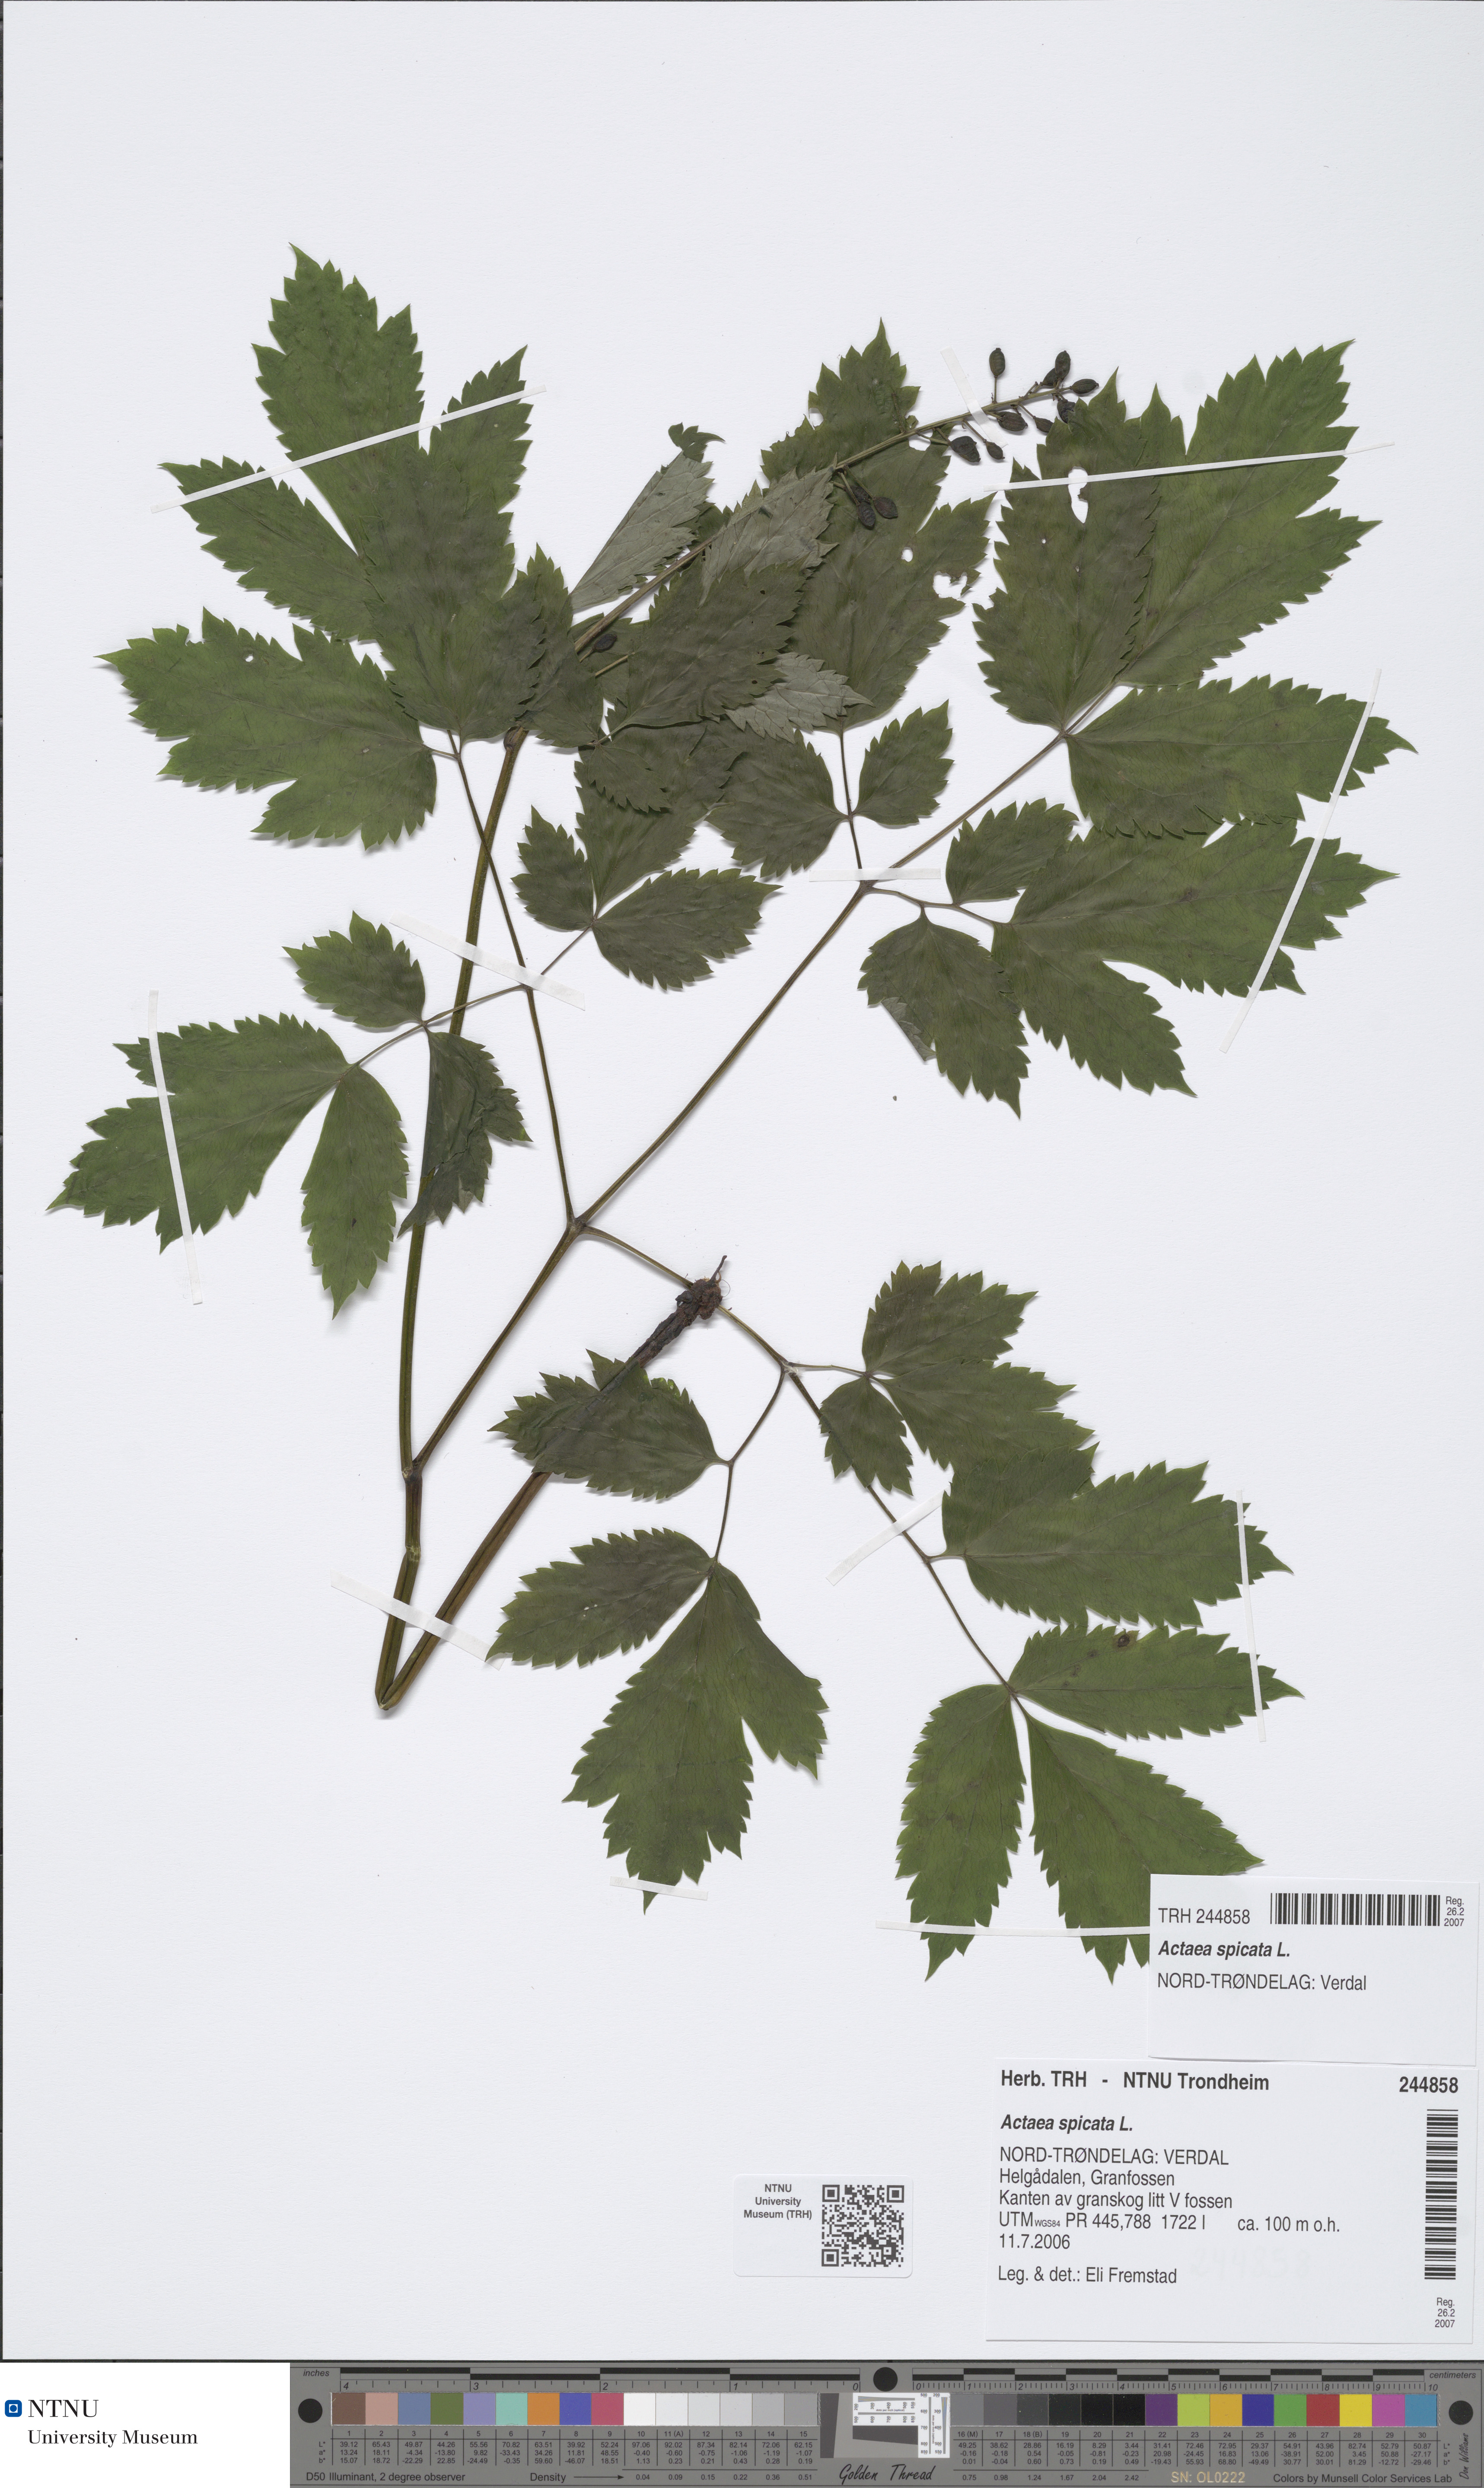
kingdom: Plantae
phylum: Tracheophyta
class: Magnoliopsida
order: Ranunculales
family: Ranunculaceae
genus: Actaea
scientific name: Actaea spicata
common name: Baneberry
